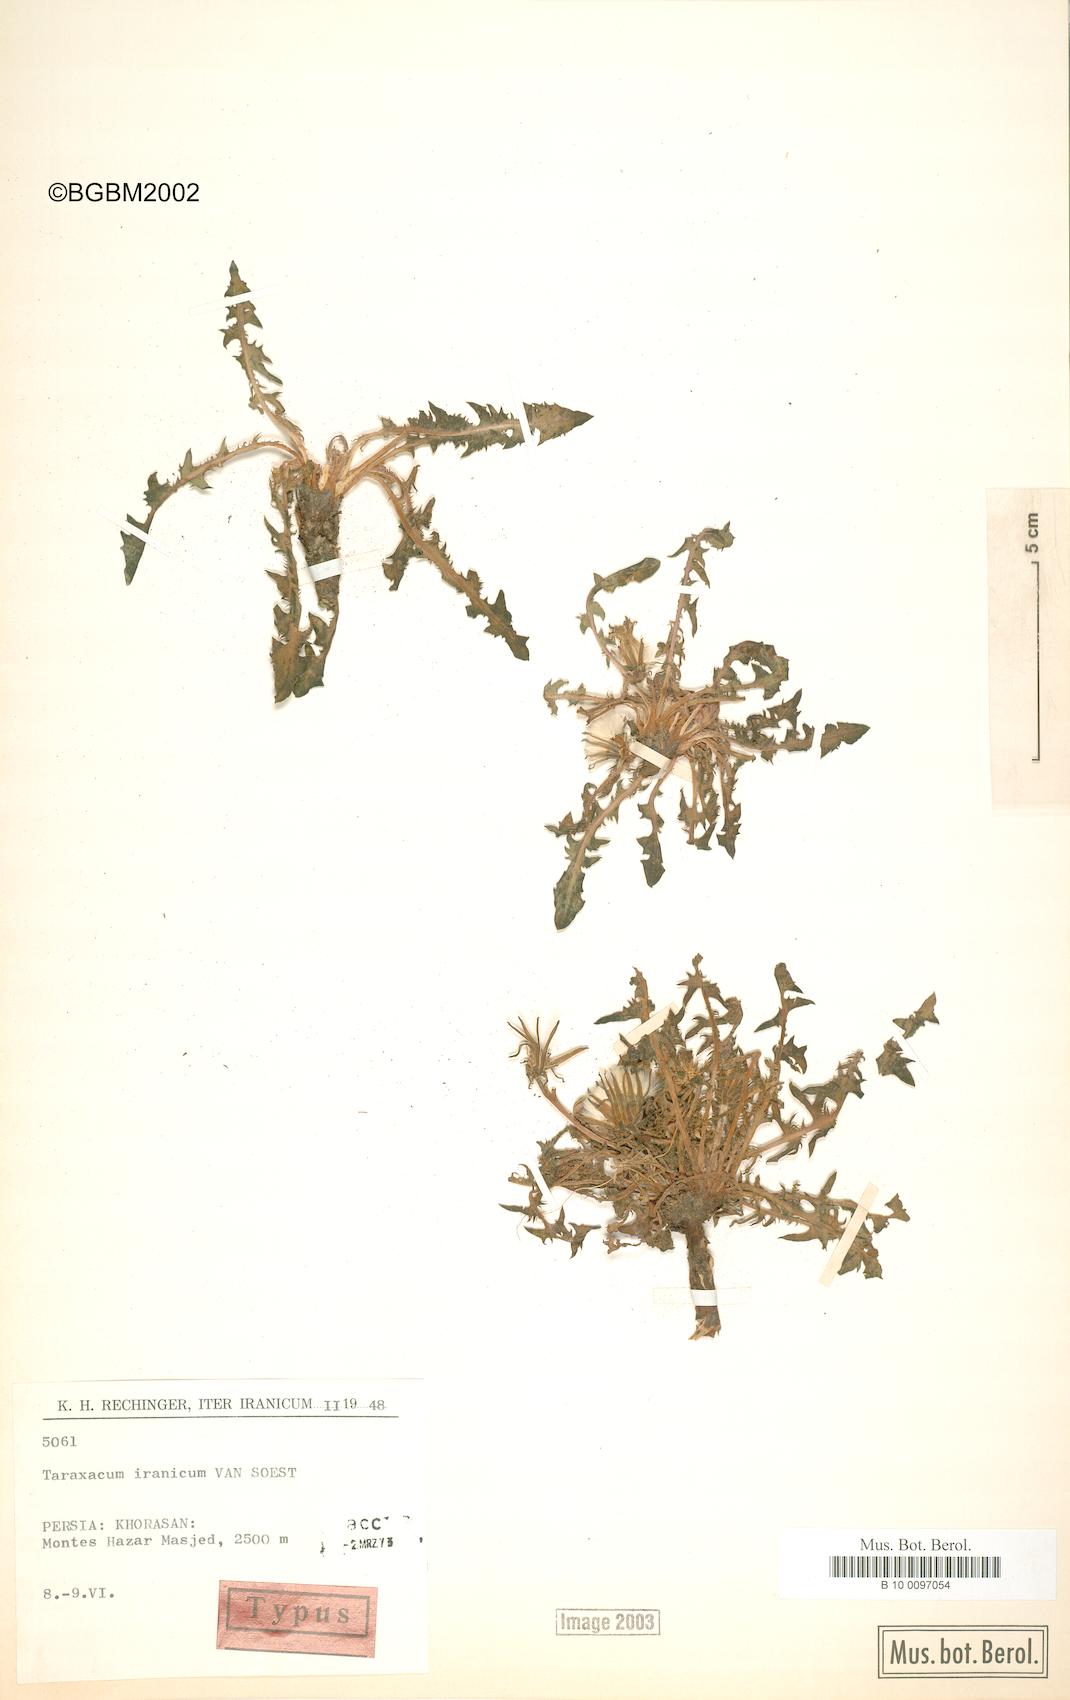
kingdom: Plantae
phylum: Tracheophyta
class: Magnoliopsida
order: Asterales
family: Asteraceae
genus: Taraxacum
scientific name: Taraxacum iranicum
